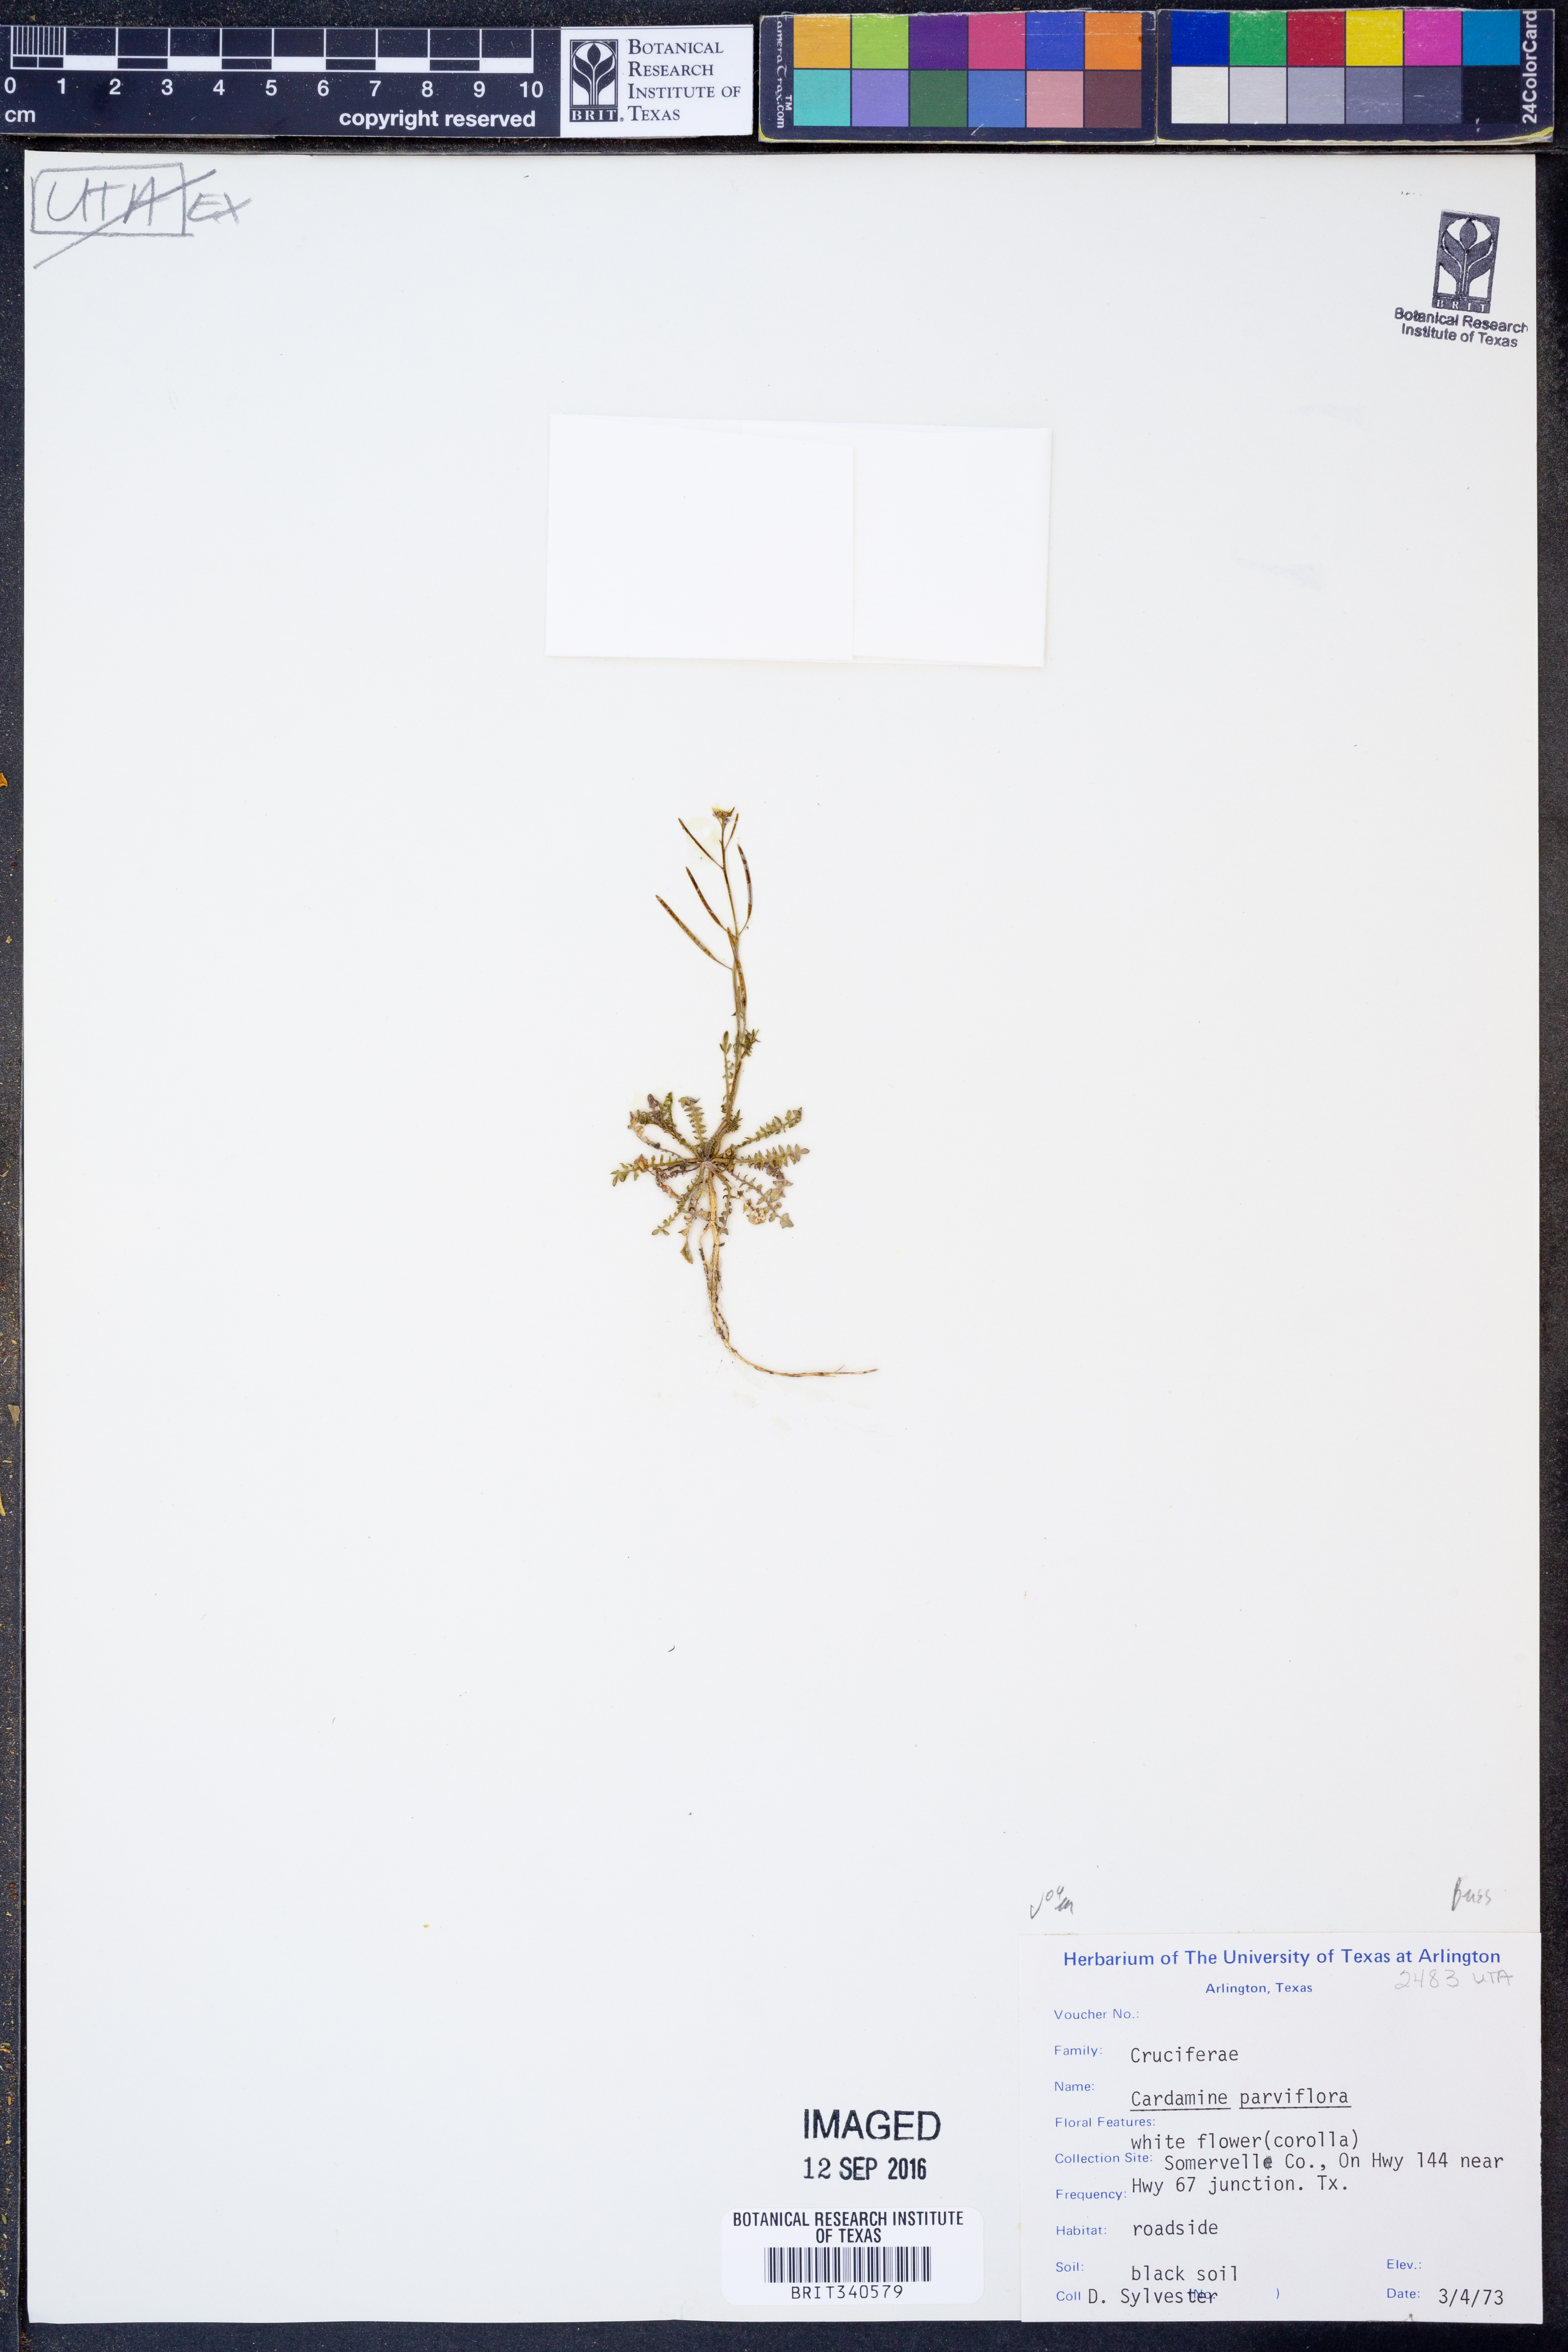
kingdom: Plantae
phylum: Tracheophyta
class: Magnoliopsida
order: Brassicales
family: Brassicaceae
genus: Cardamine
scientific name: Cardamine parviflora
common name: Sand bittercress
